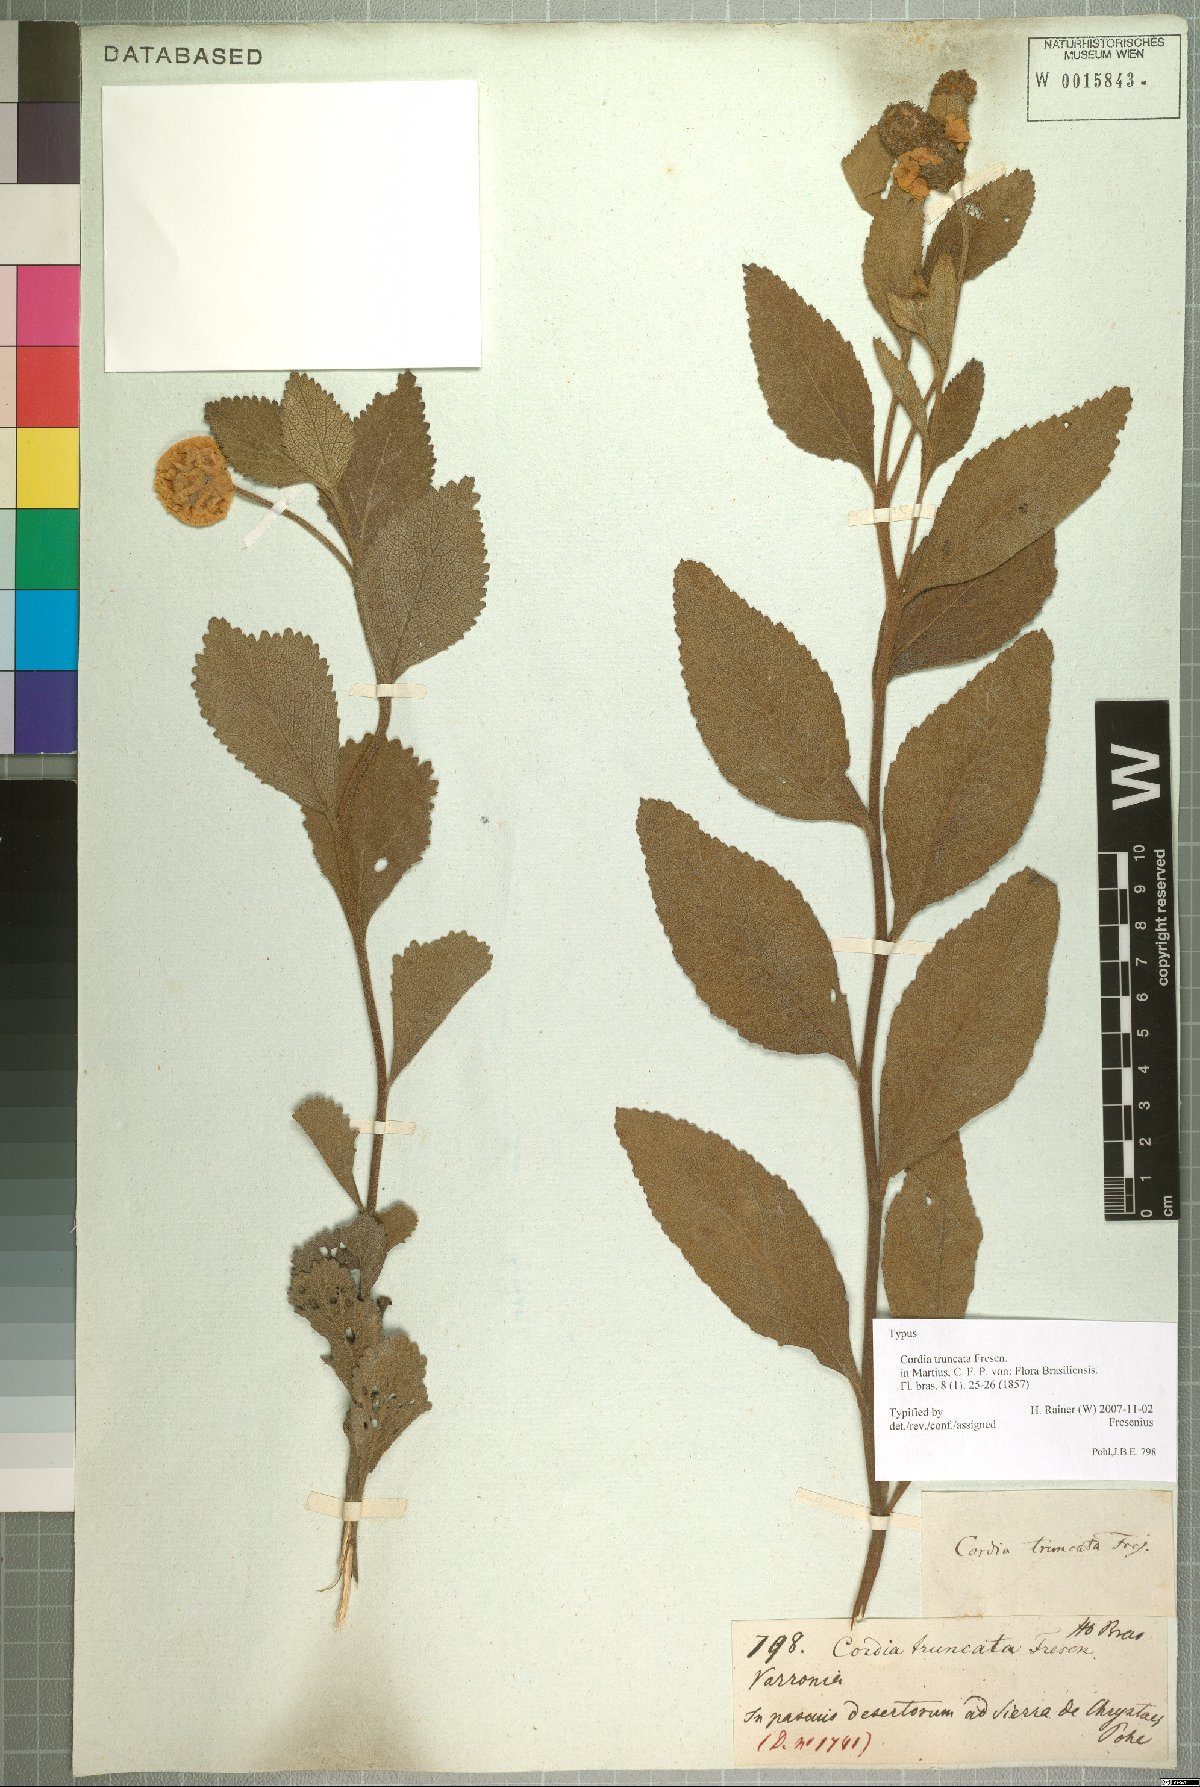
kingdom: Plantae
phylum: Tracheophyta
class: Magnoliopsida
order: Boraginales
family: Cordiaceae
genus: Varronia
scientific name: Varronia truncata
